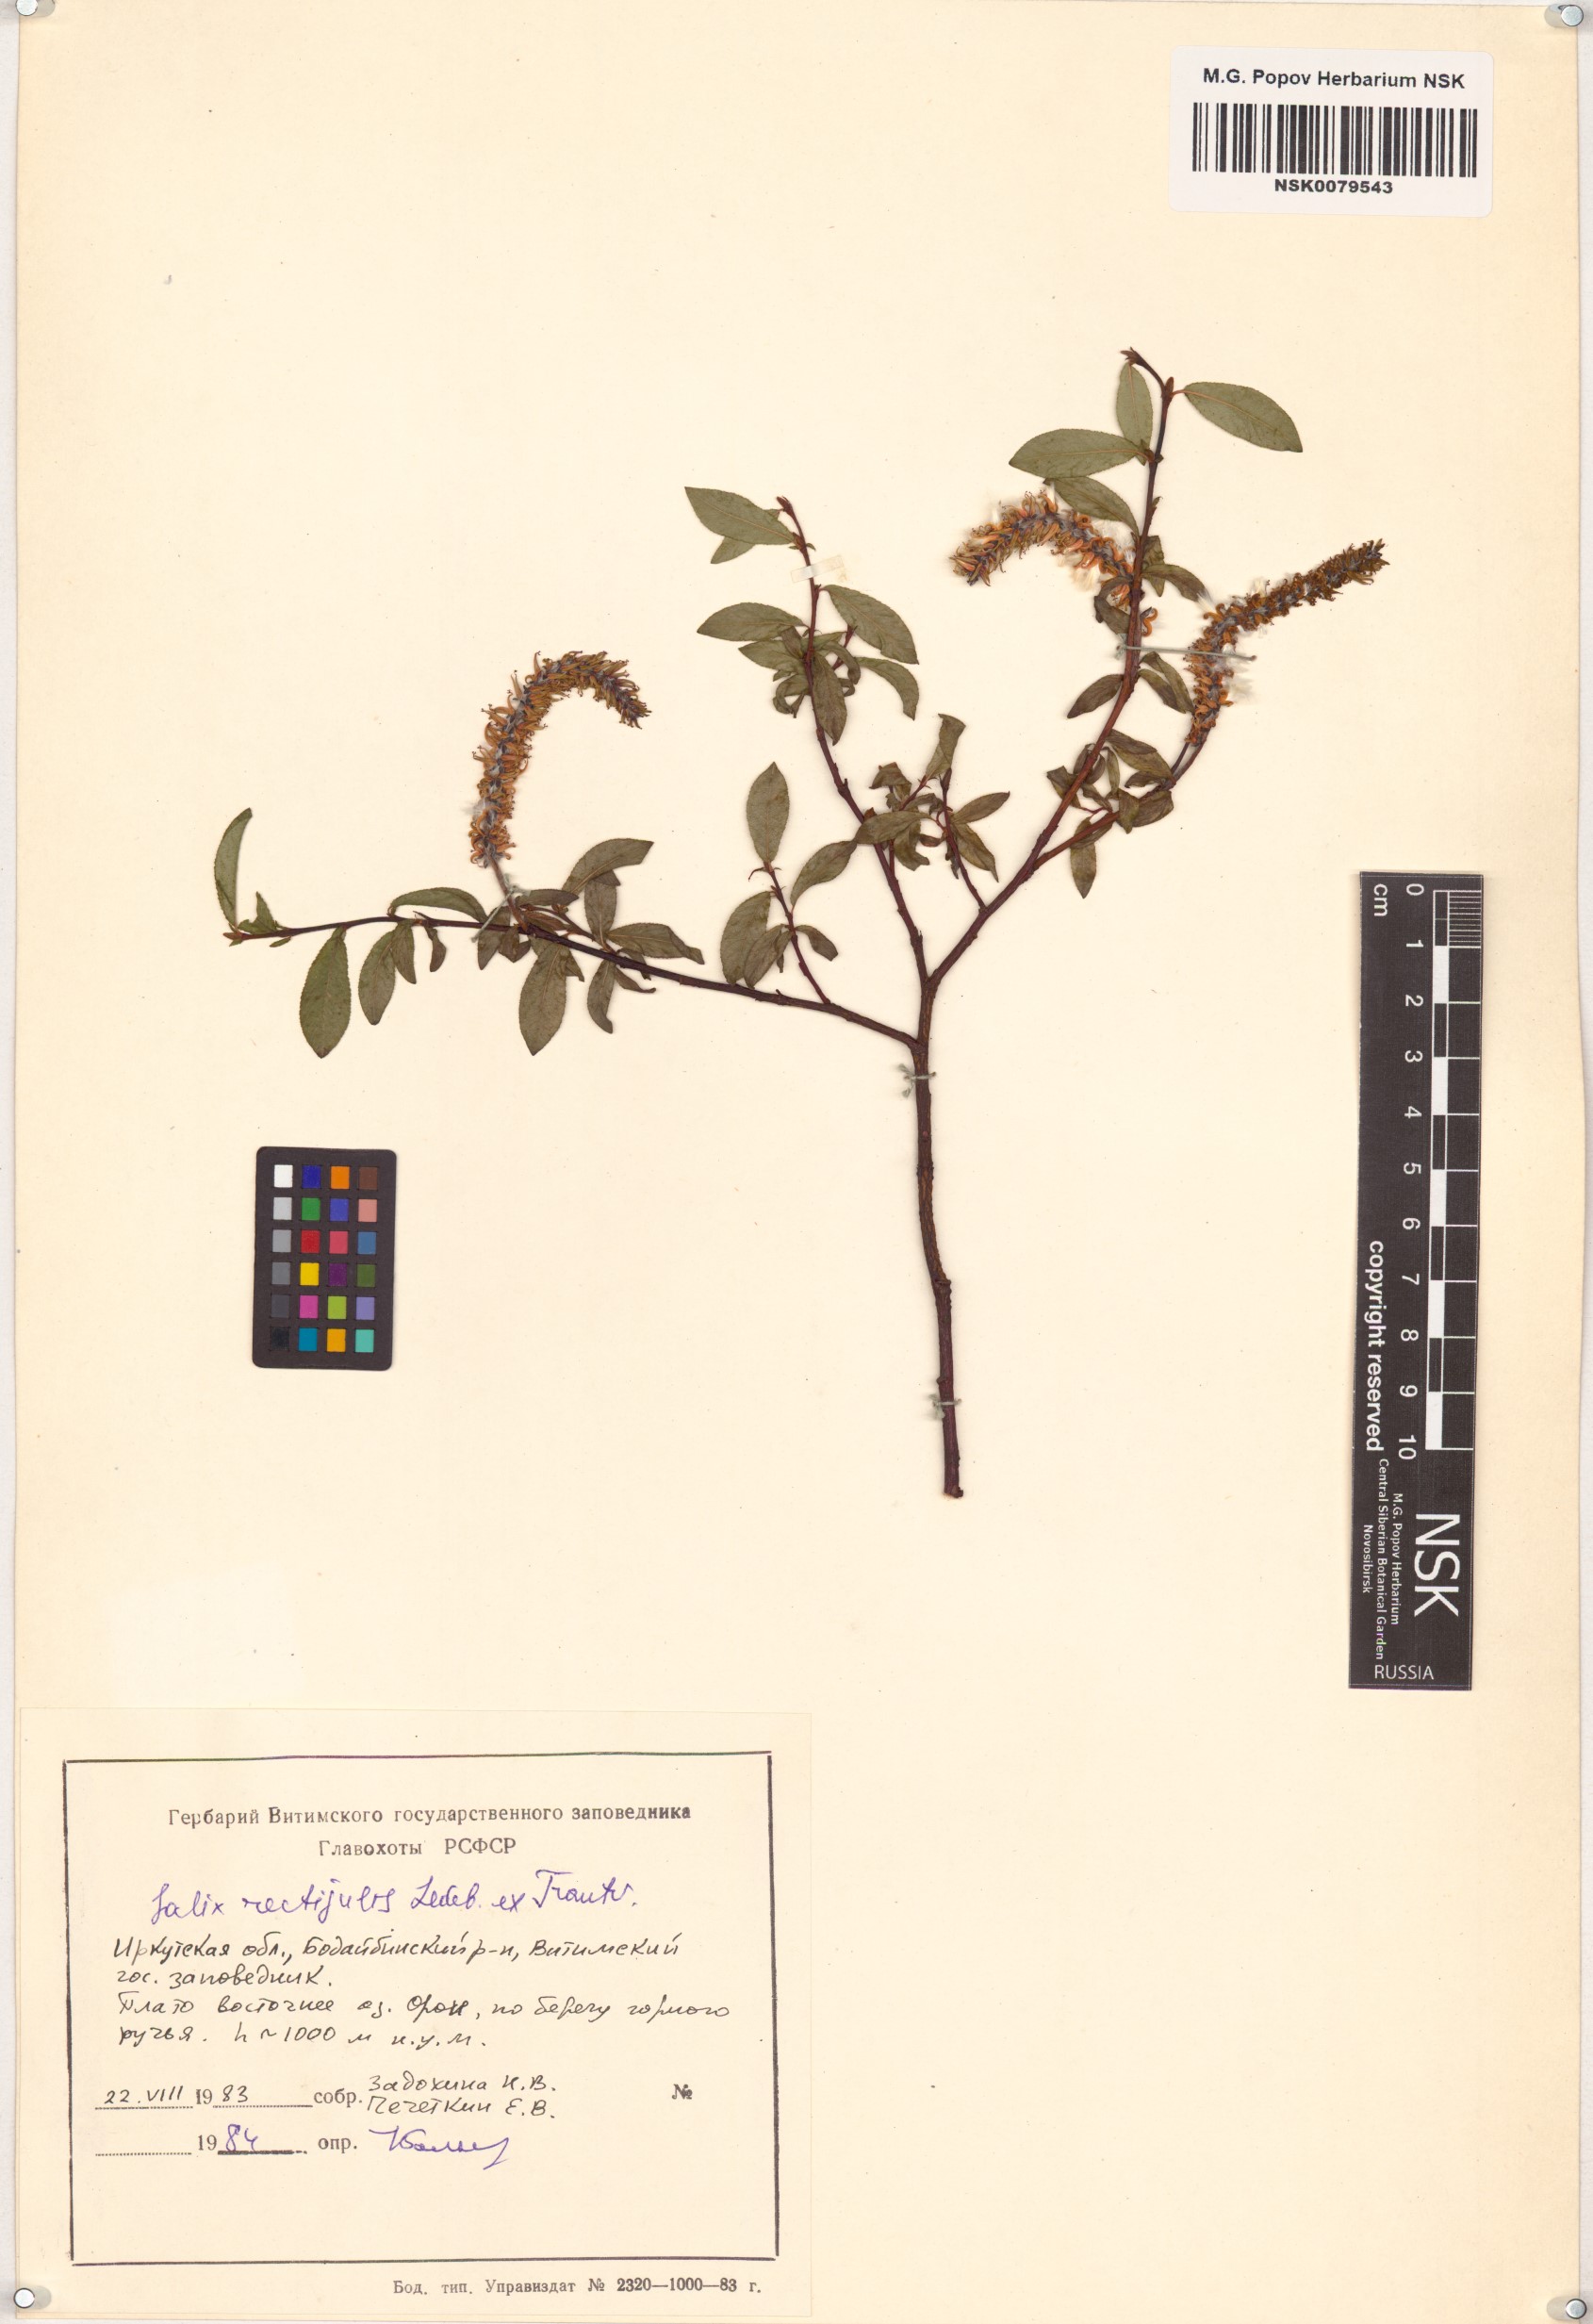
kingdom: Plantae
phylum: Tracheophyta
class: Magnoliopsida
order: Malpighiales
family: Salicaceae
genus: Salix
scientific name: Salix rectijulis
